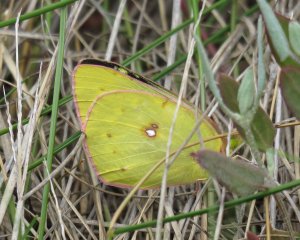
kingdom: Animalia
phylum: Arthropoda
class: Insecta
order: Lepidoptera
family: Pieridae
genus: Colias
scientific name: Colias philodice
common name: Clouded Sulphur
